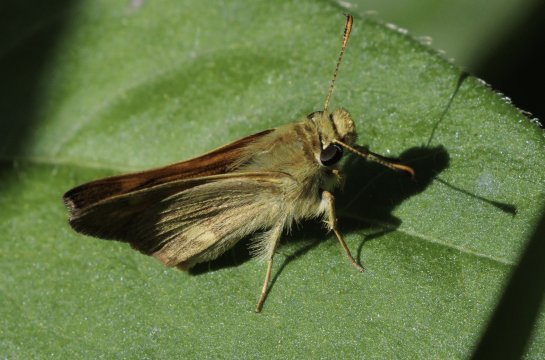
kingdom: Animalia
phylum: Arthropoda
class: Insecta
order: Lepidoptera
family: Hesperiidae
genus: Ochlodes
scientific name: Ochlodes sylvanoides
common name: Woodland Skipper
